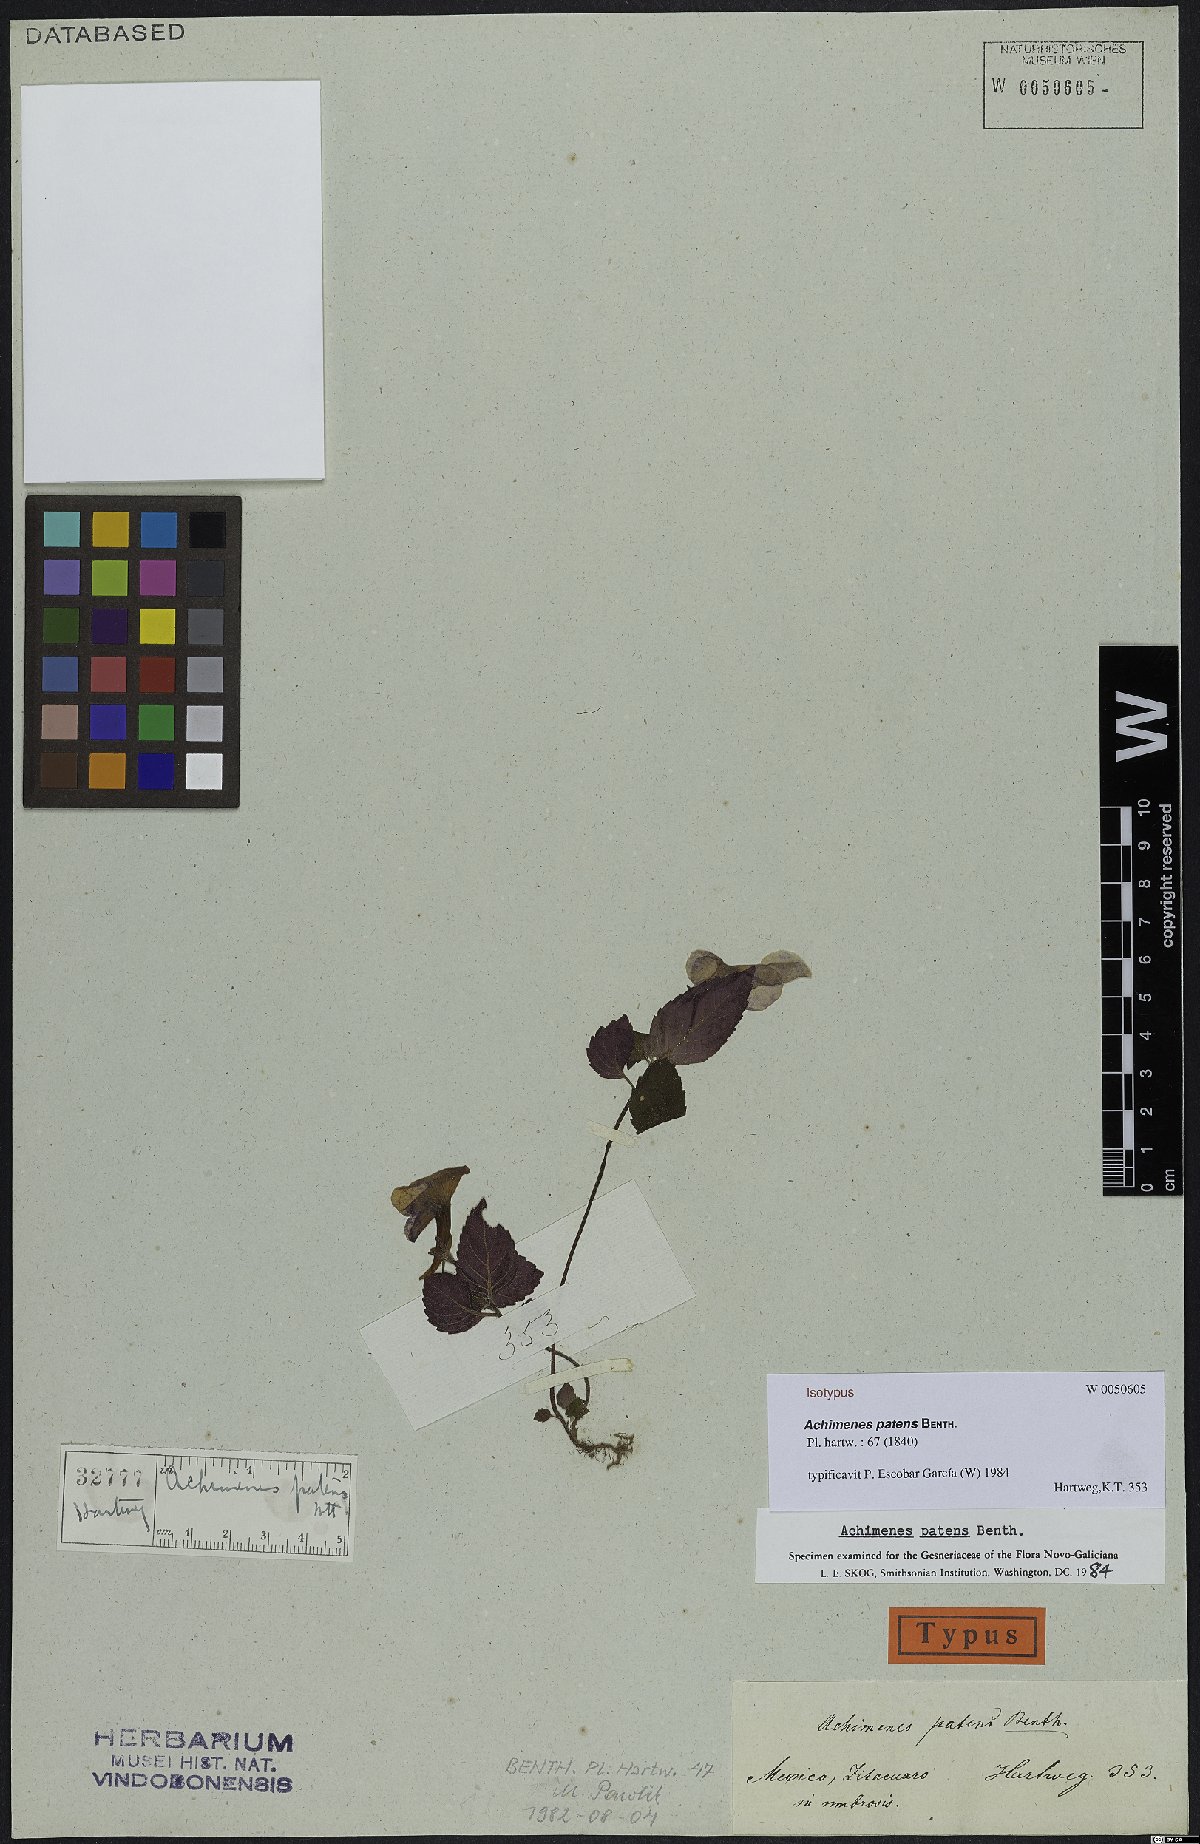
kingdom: Plantae
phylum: Tracheophyta
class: Magnoliopsida
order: Lamiales
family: Gesneriaceae
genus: Achimenes
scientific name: Achimenes patens
